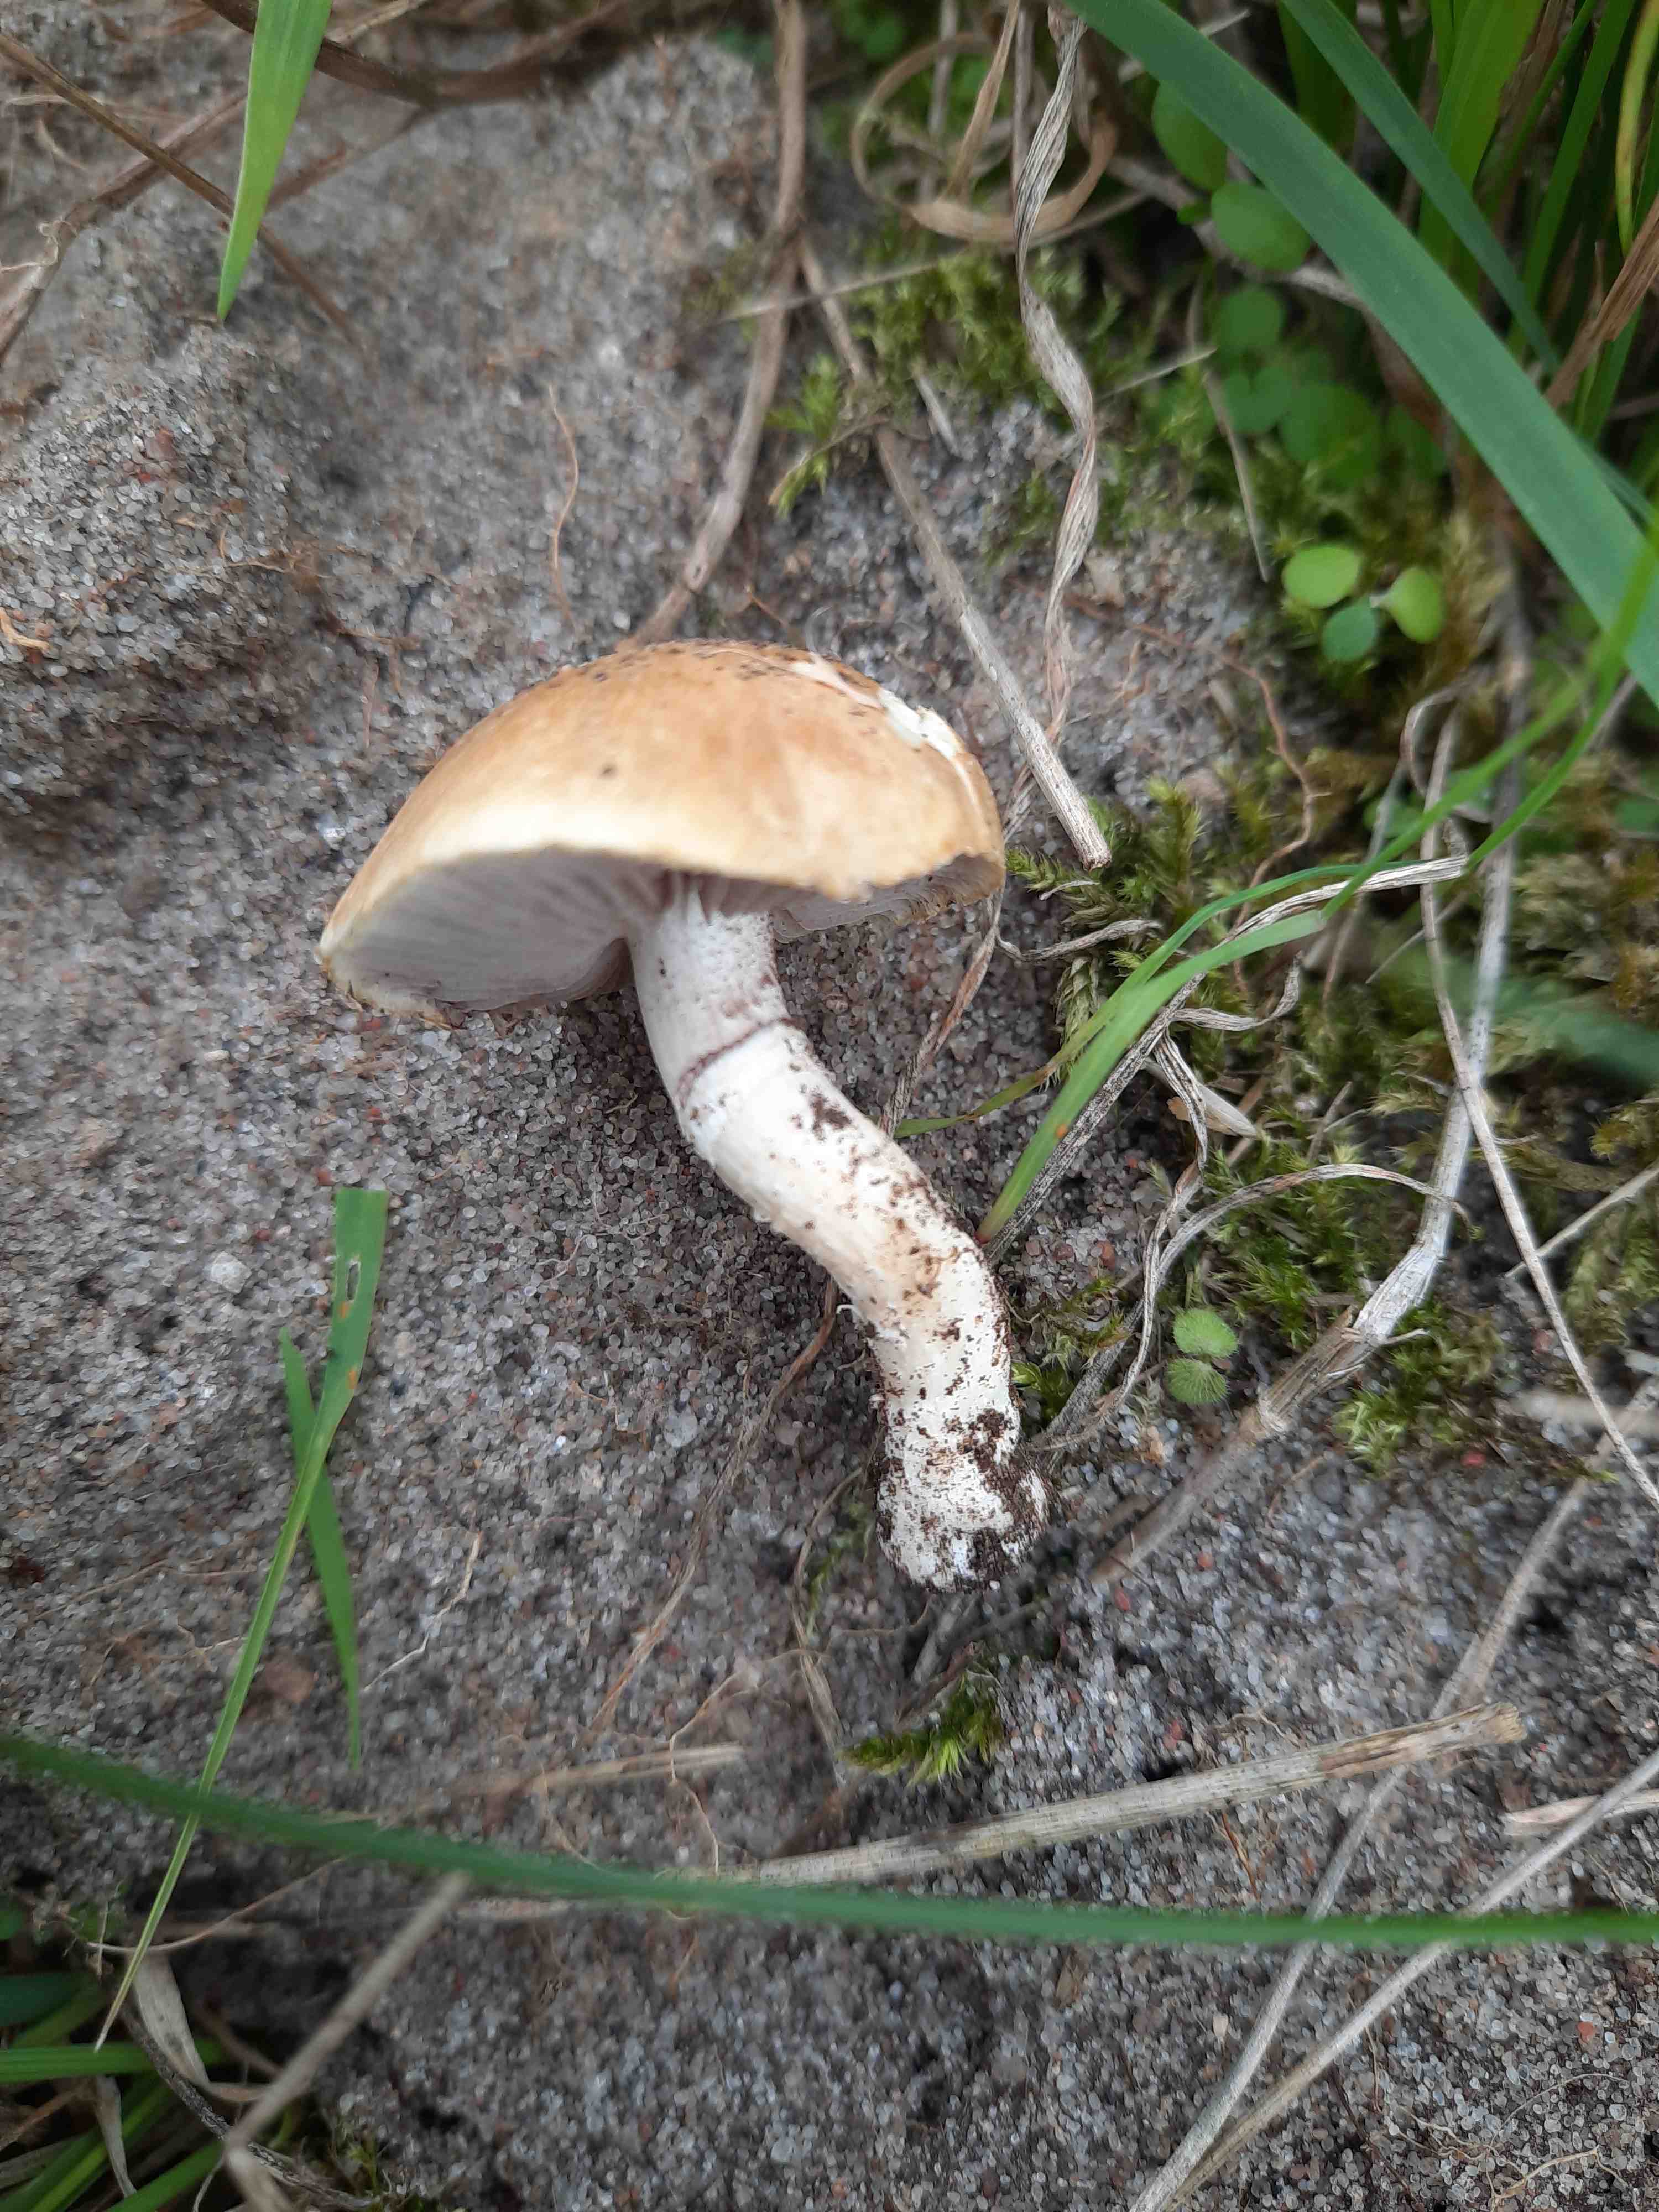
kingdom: Fungi
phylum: Basidiomycota
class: Agaricomycetes
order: Agaricales
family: Hymenogastraceae
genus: Psilocybe
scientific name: Psilocybe coronilla
